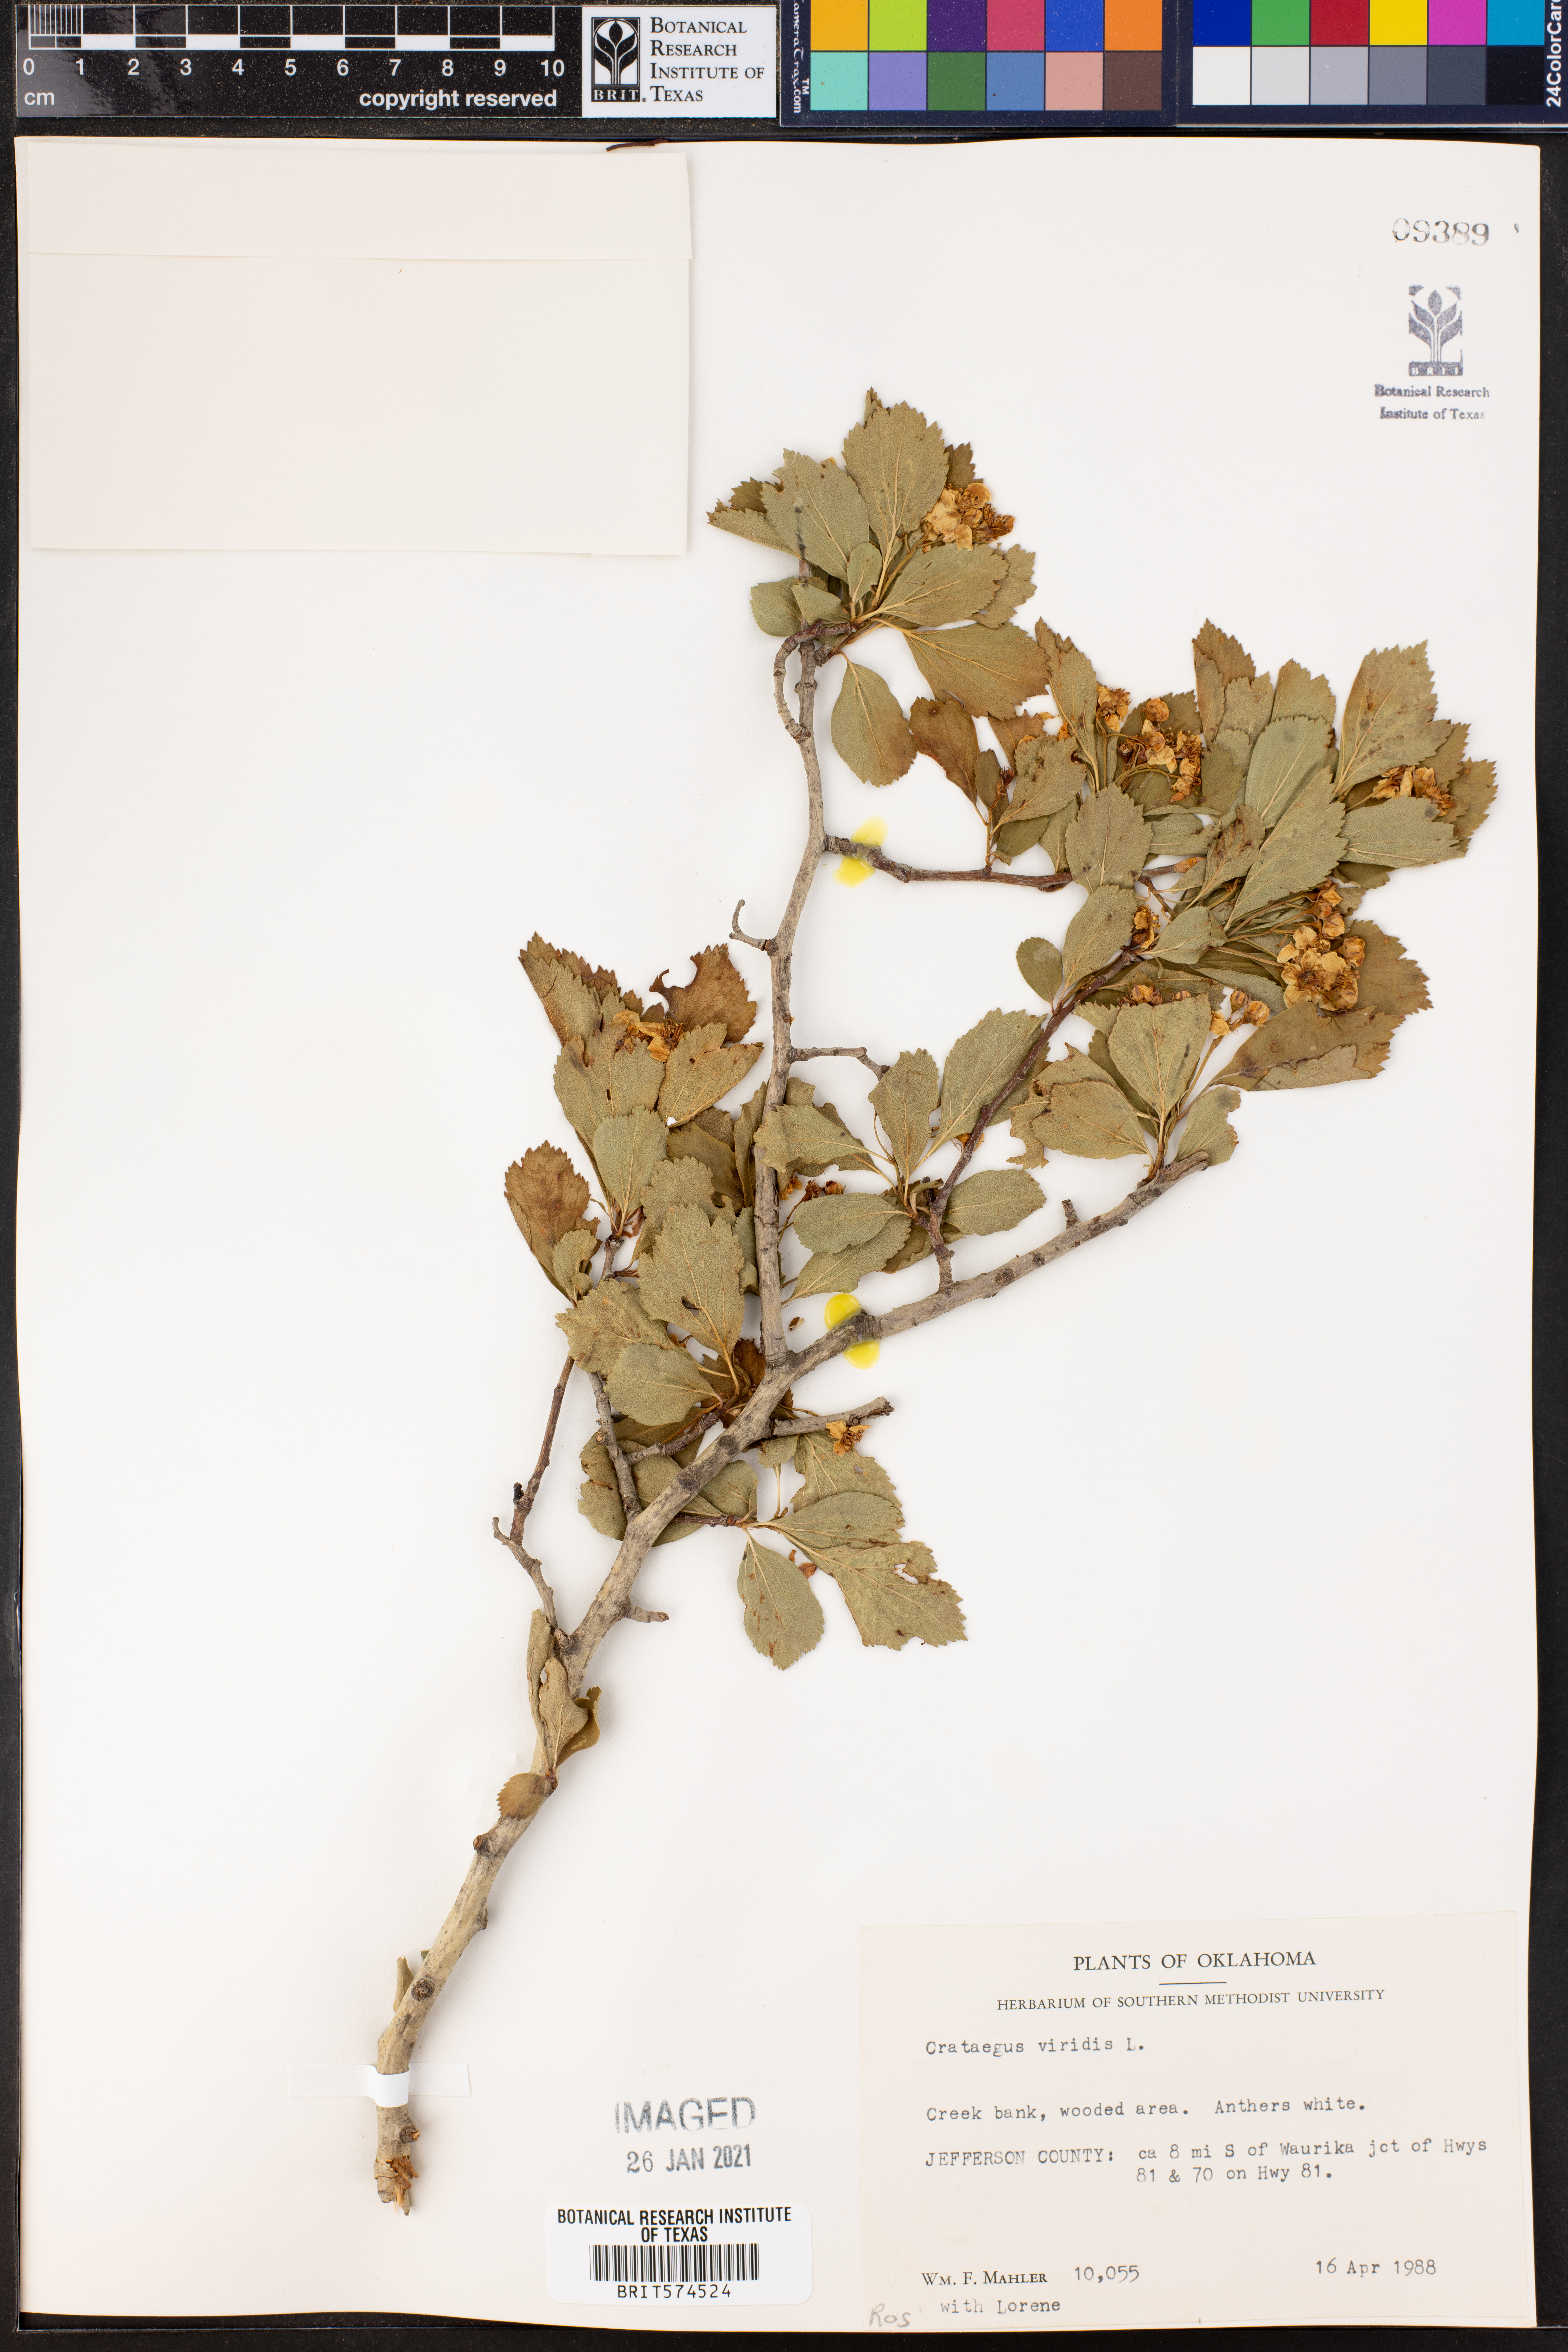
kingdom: Plantae
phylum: Tracheophyta
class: Magnoliopsida
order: Rosales
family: Rosaceae
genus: Crataegus
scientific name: Crataegus viridis
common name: Southernthorn
